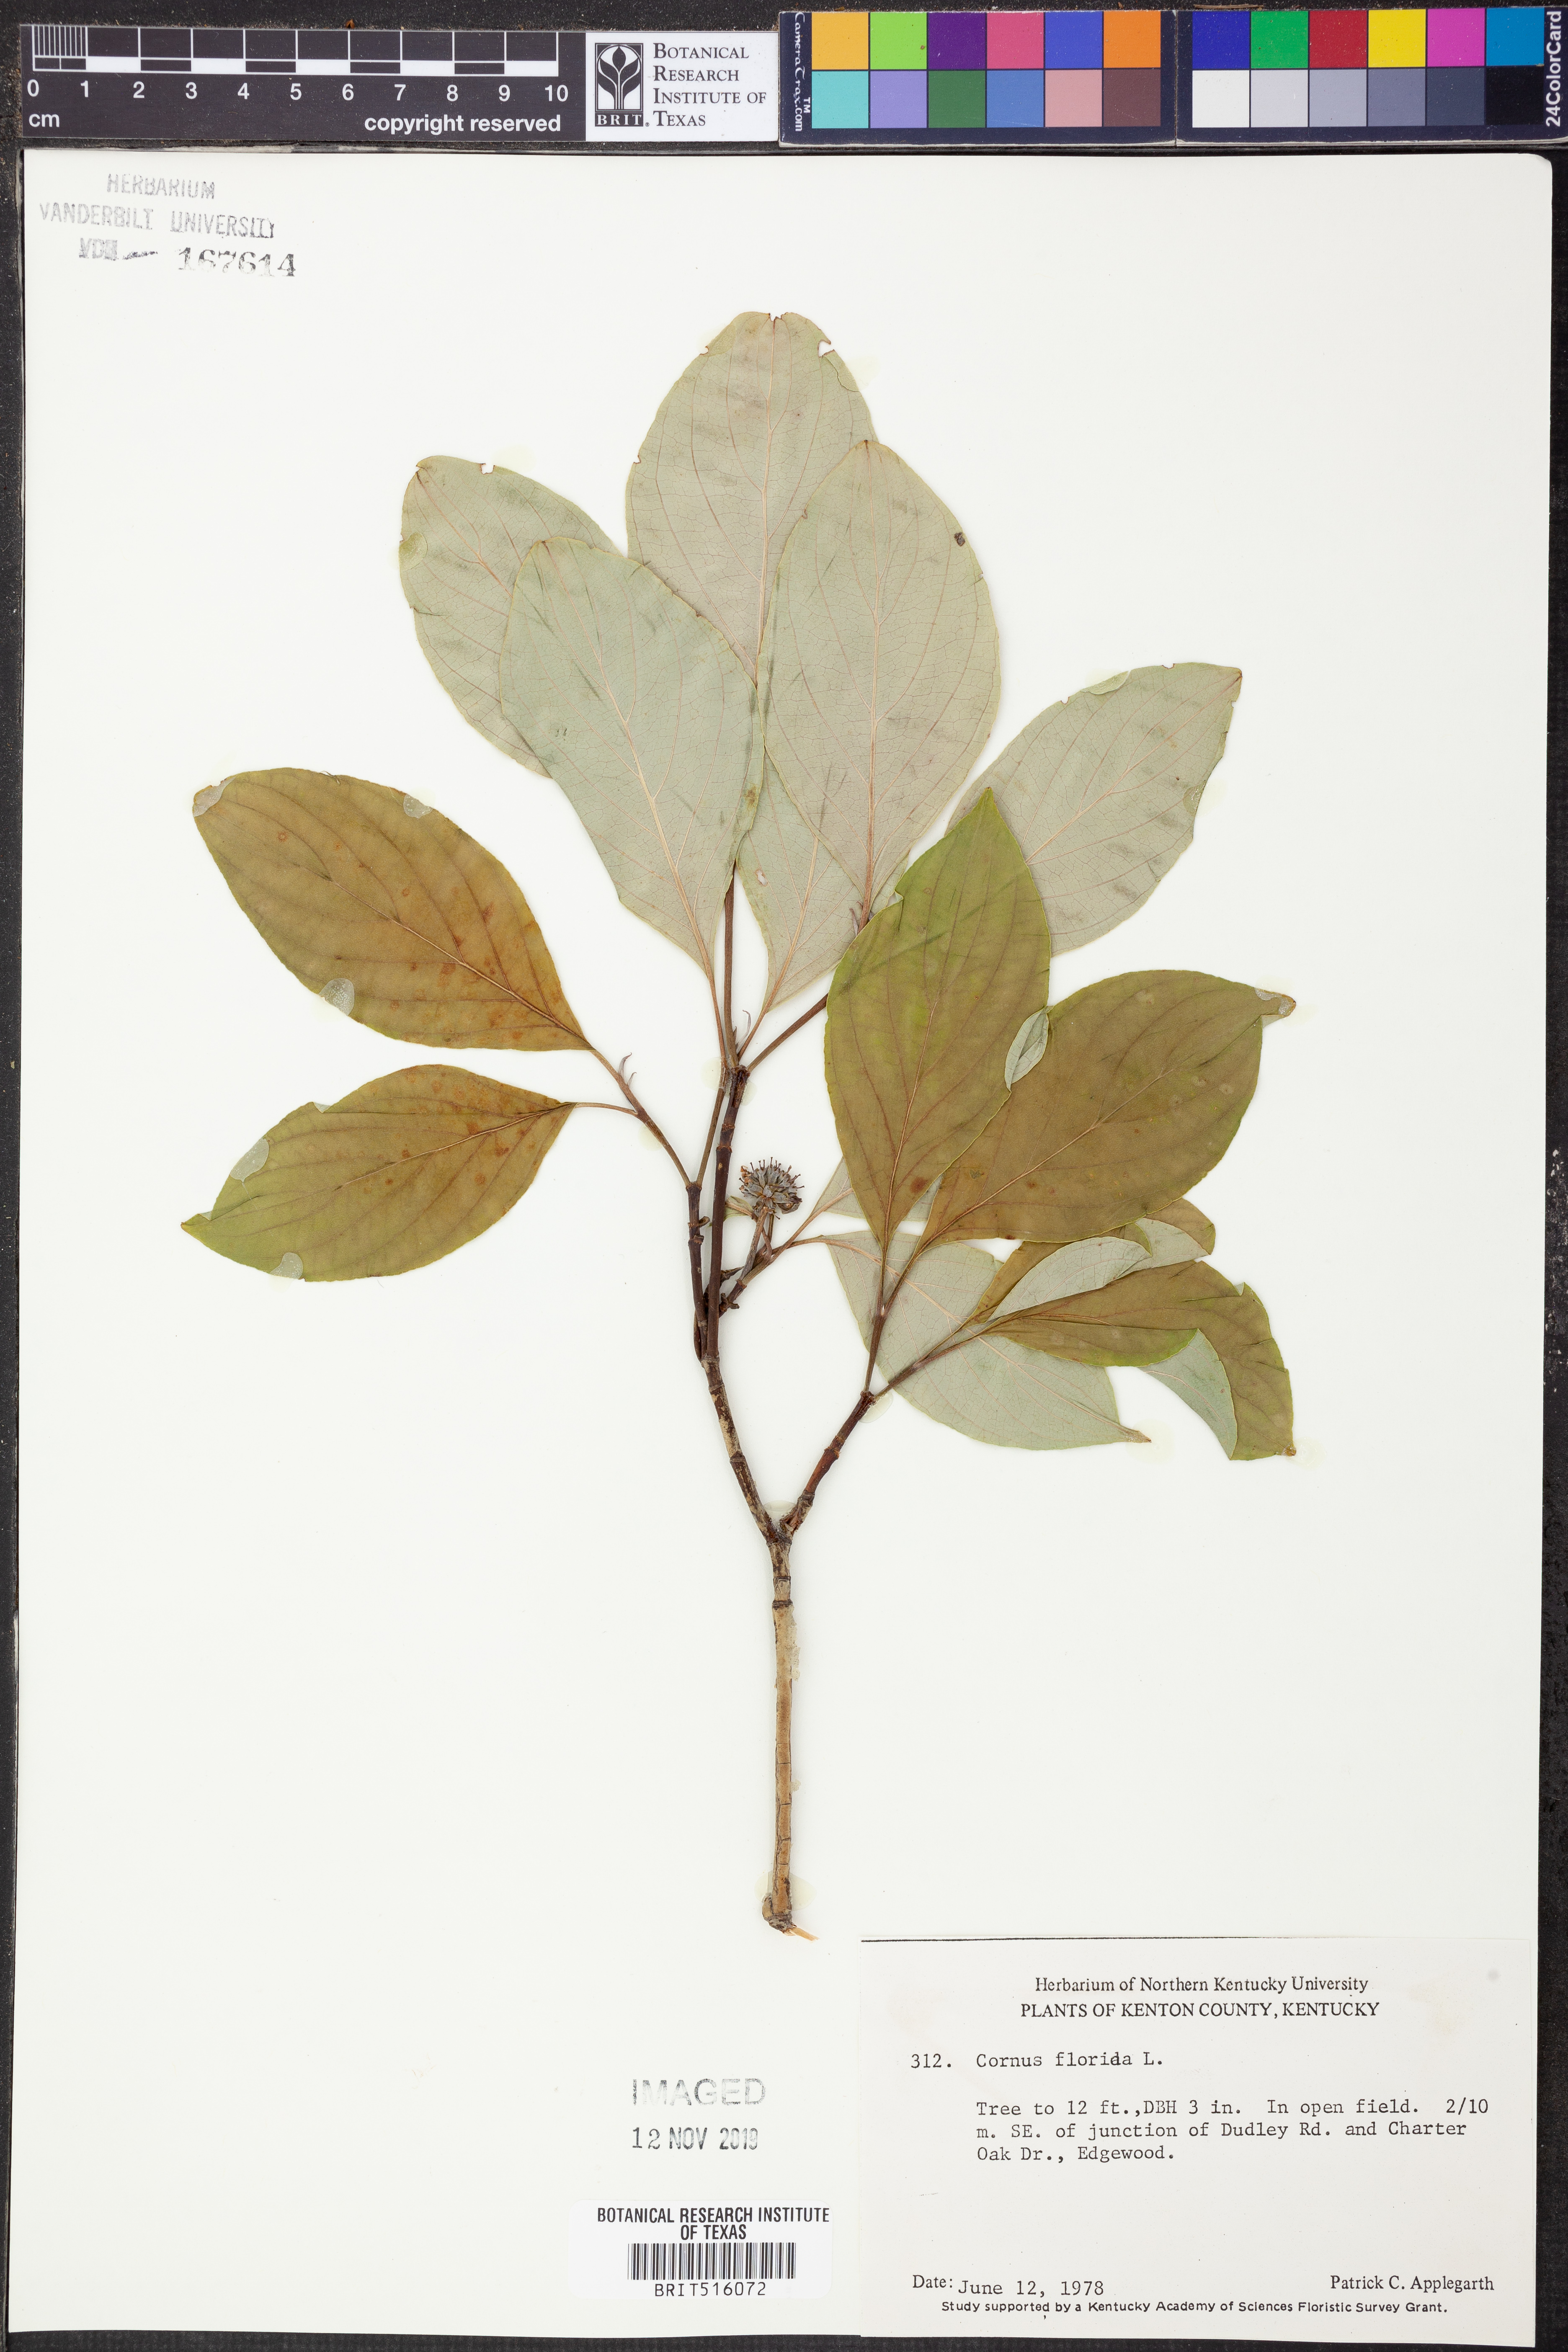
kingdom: Plantae
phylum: Tracheophyta
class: Magnoliopsida
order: Cornales
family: Cornaceae
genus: Cornus
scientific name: Cornus florida
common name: Flowering dogwood
